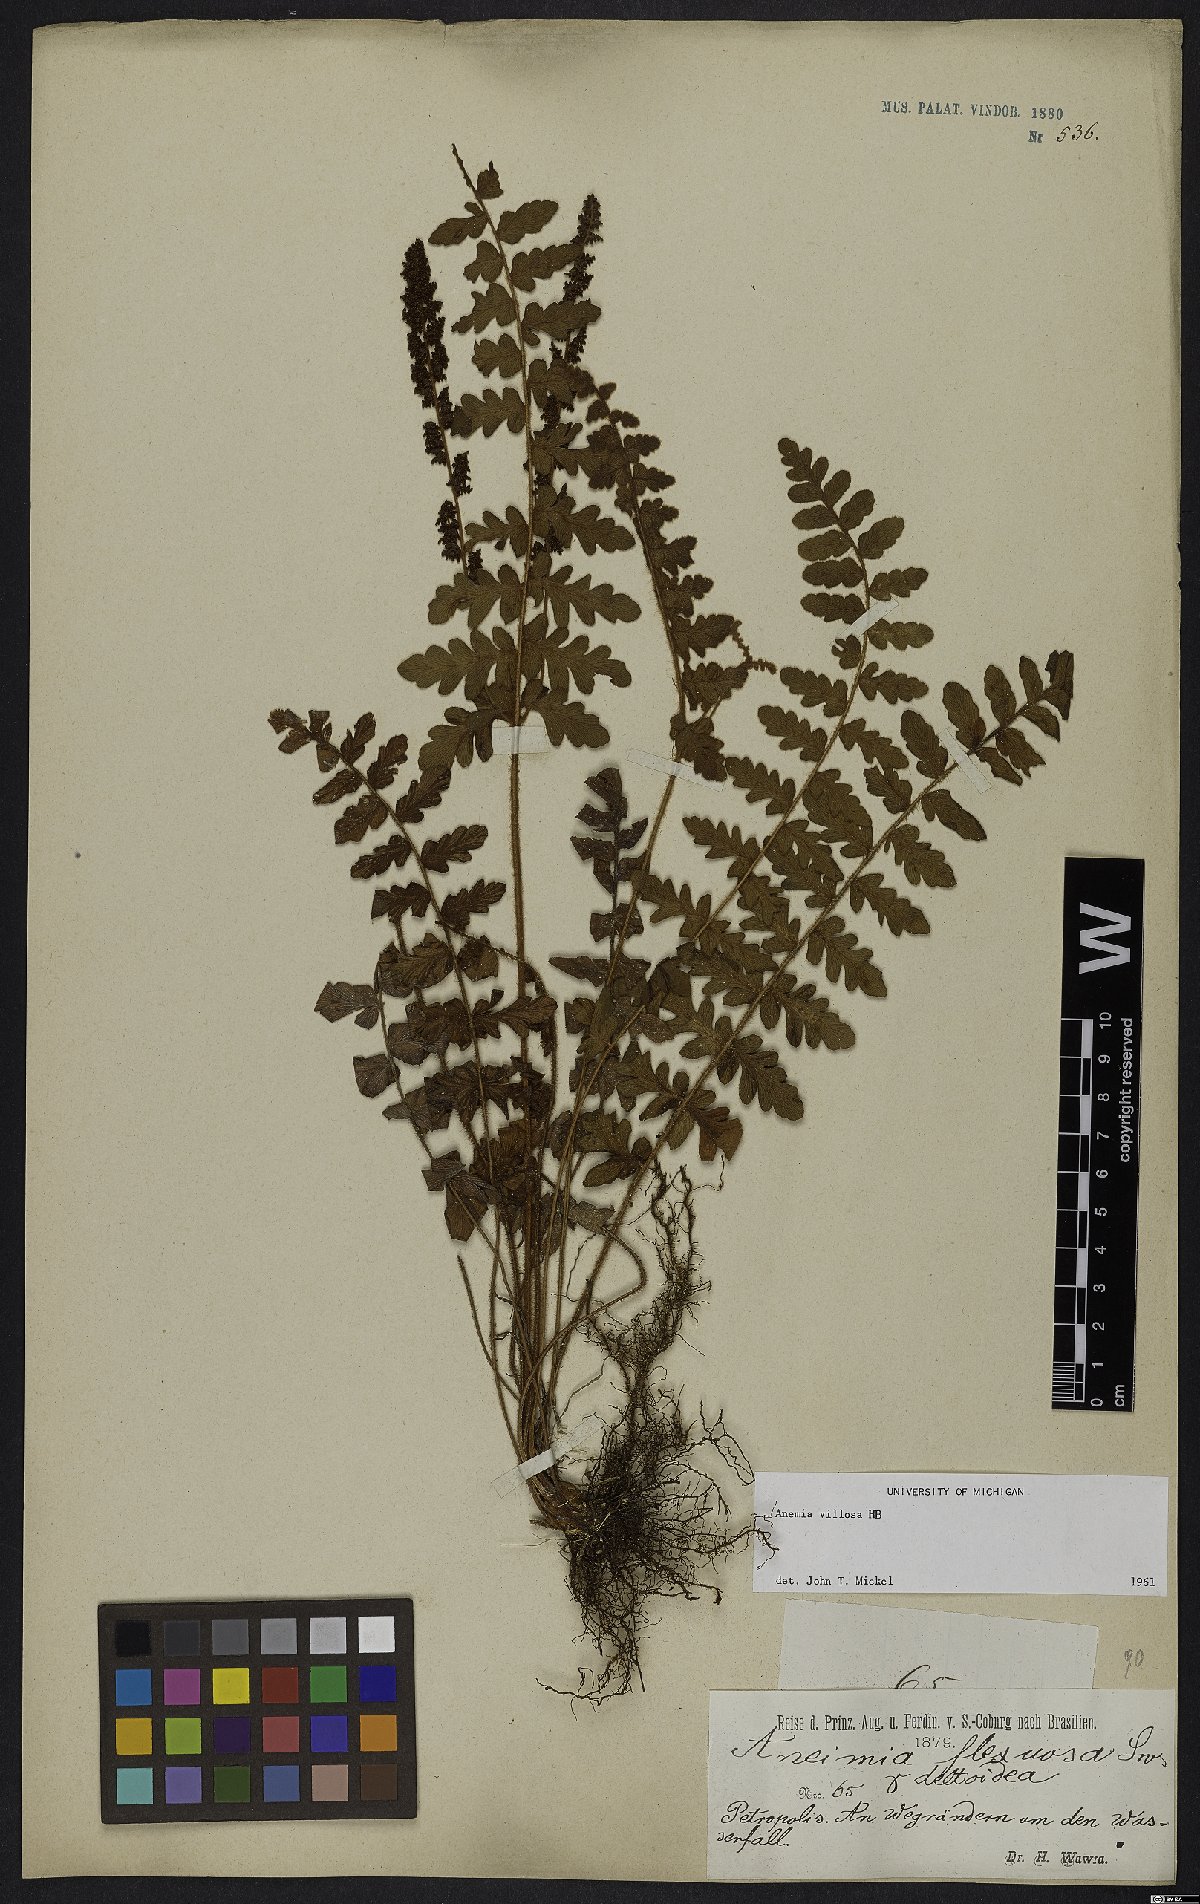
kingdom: Plantae
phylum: Tracheophyta
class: Polypodiopsida
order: Schizaeales
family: Anemiaceae
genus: Anemia
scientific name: Anemia villosa
